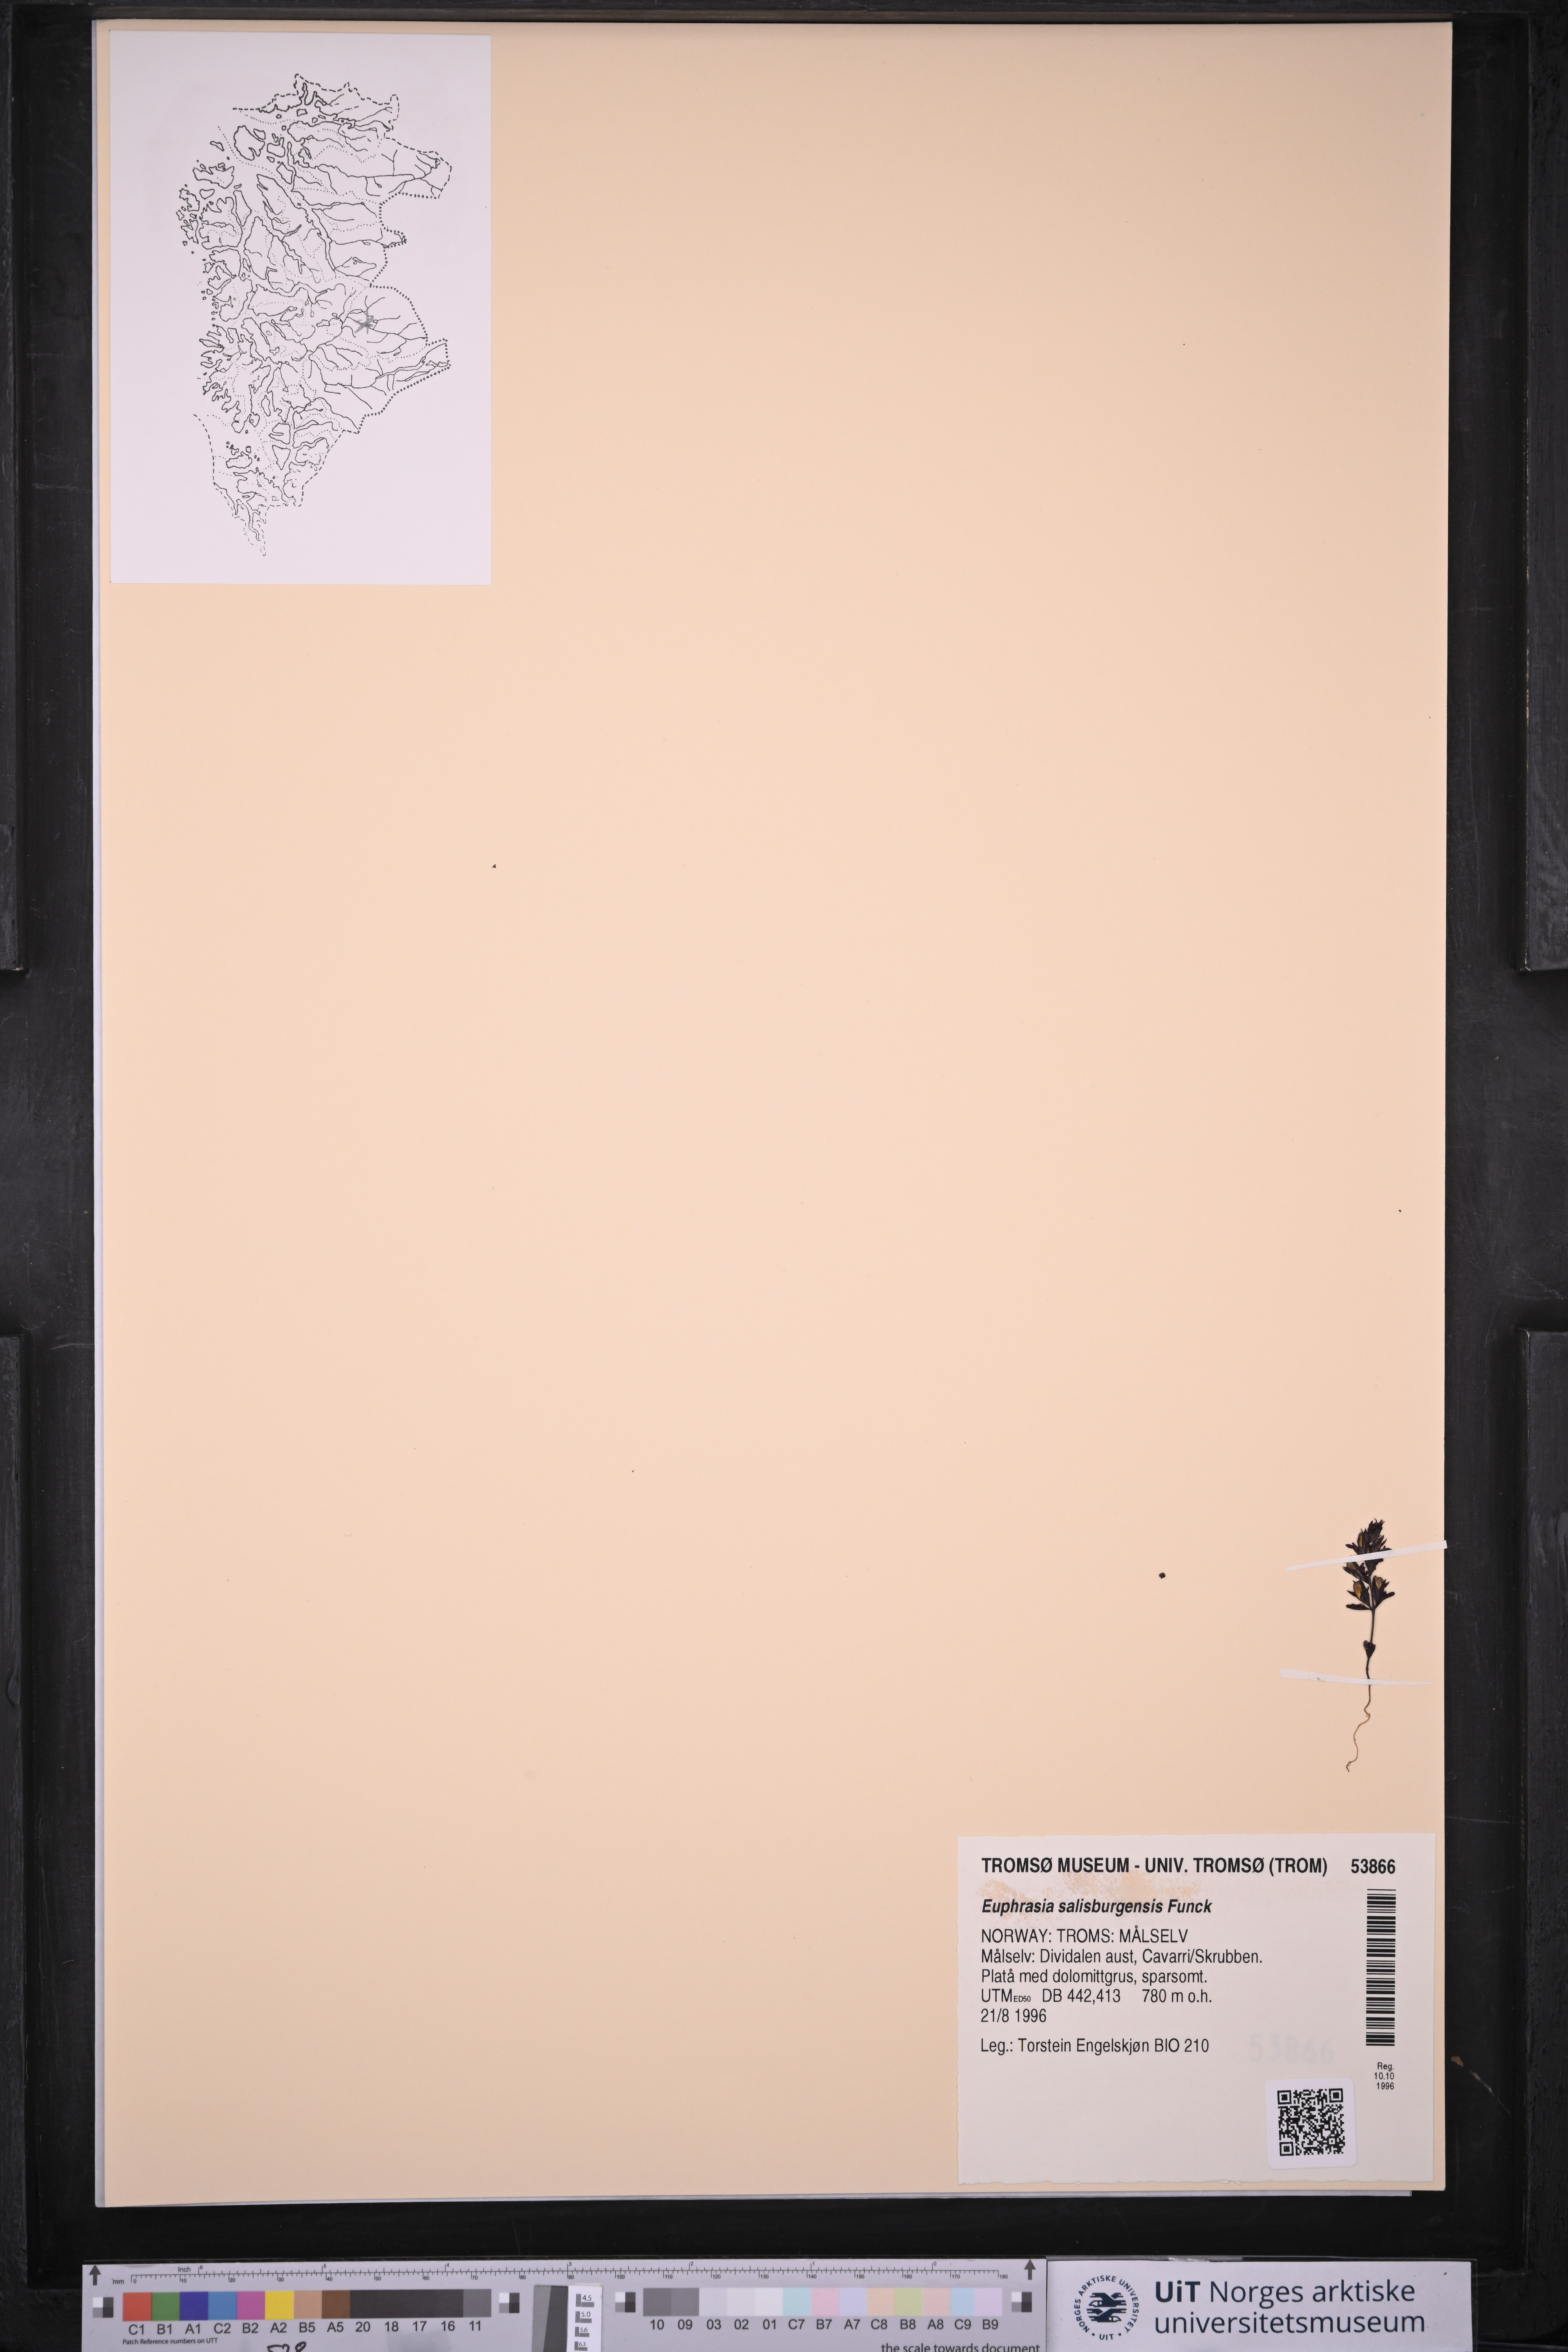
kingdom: Plantae
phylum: Tracheophyta
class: Magnoliopsida
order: Lamiales
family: Orobanchaceae
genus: Euphrasia
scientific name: Euphrasia salisburgensis
